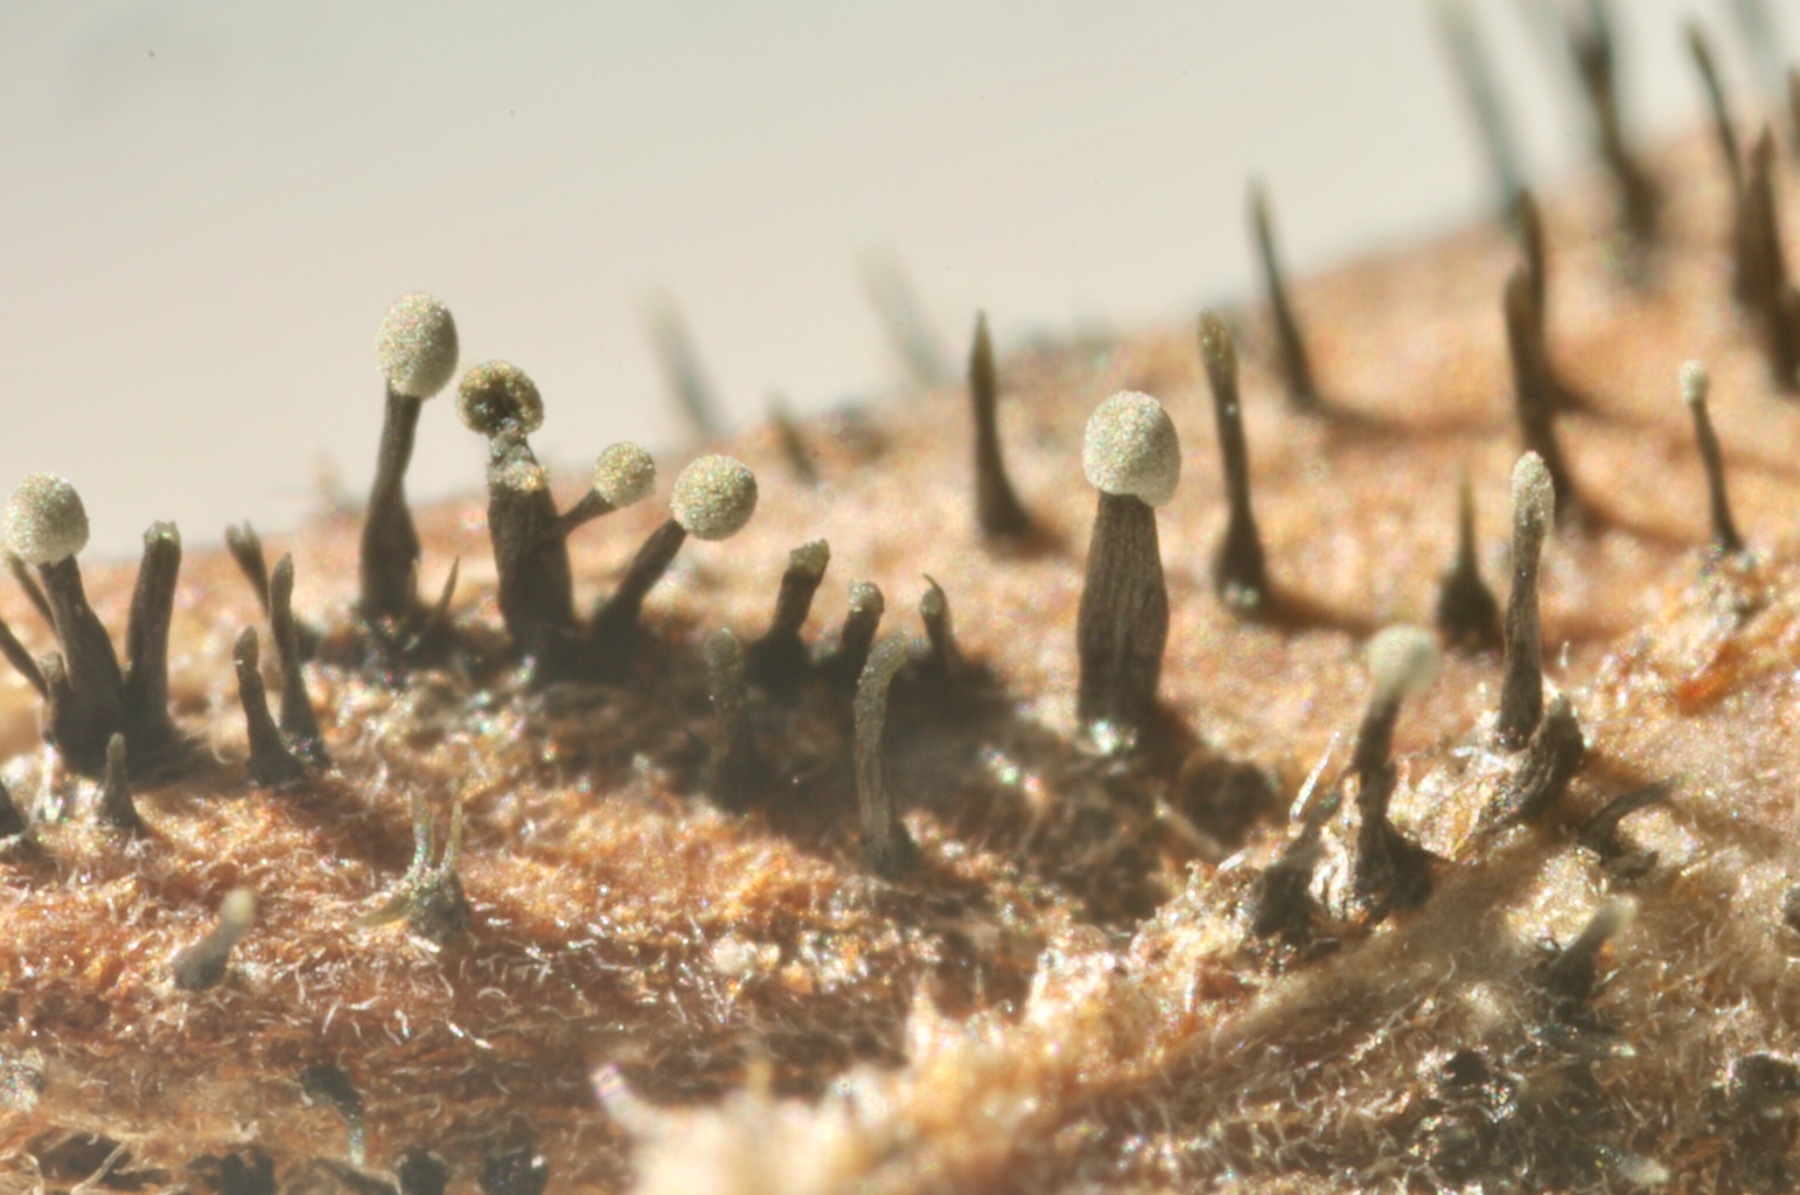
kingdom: Fungi
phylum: Ascomycota
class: Dothideomycetes
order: Pleosporales
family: Melanommataceae
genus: Seifertia
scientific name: Seifertia azaleae
